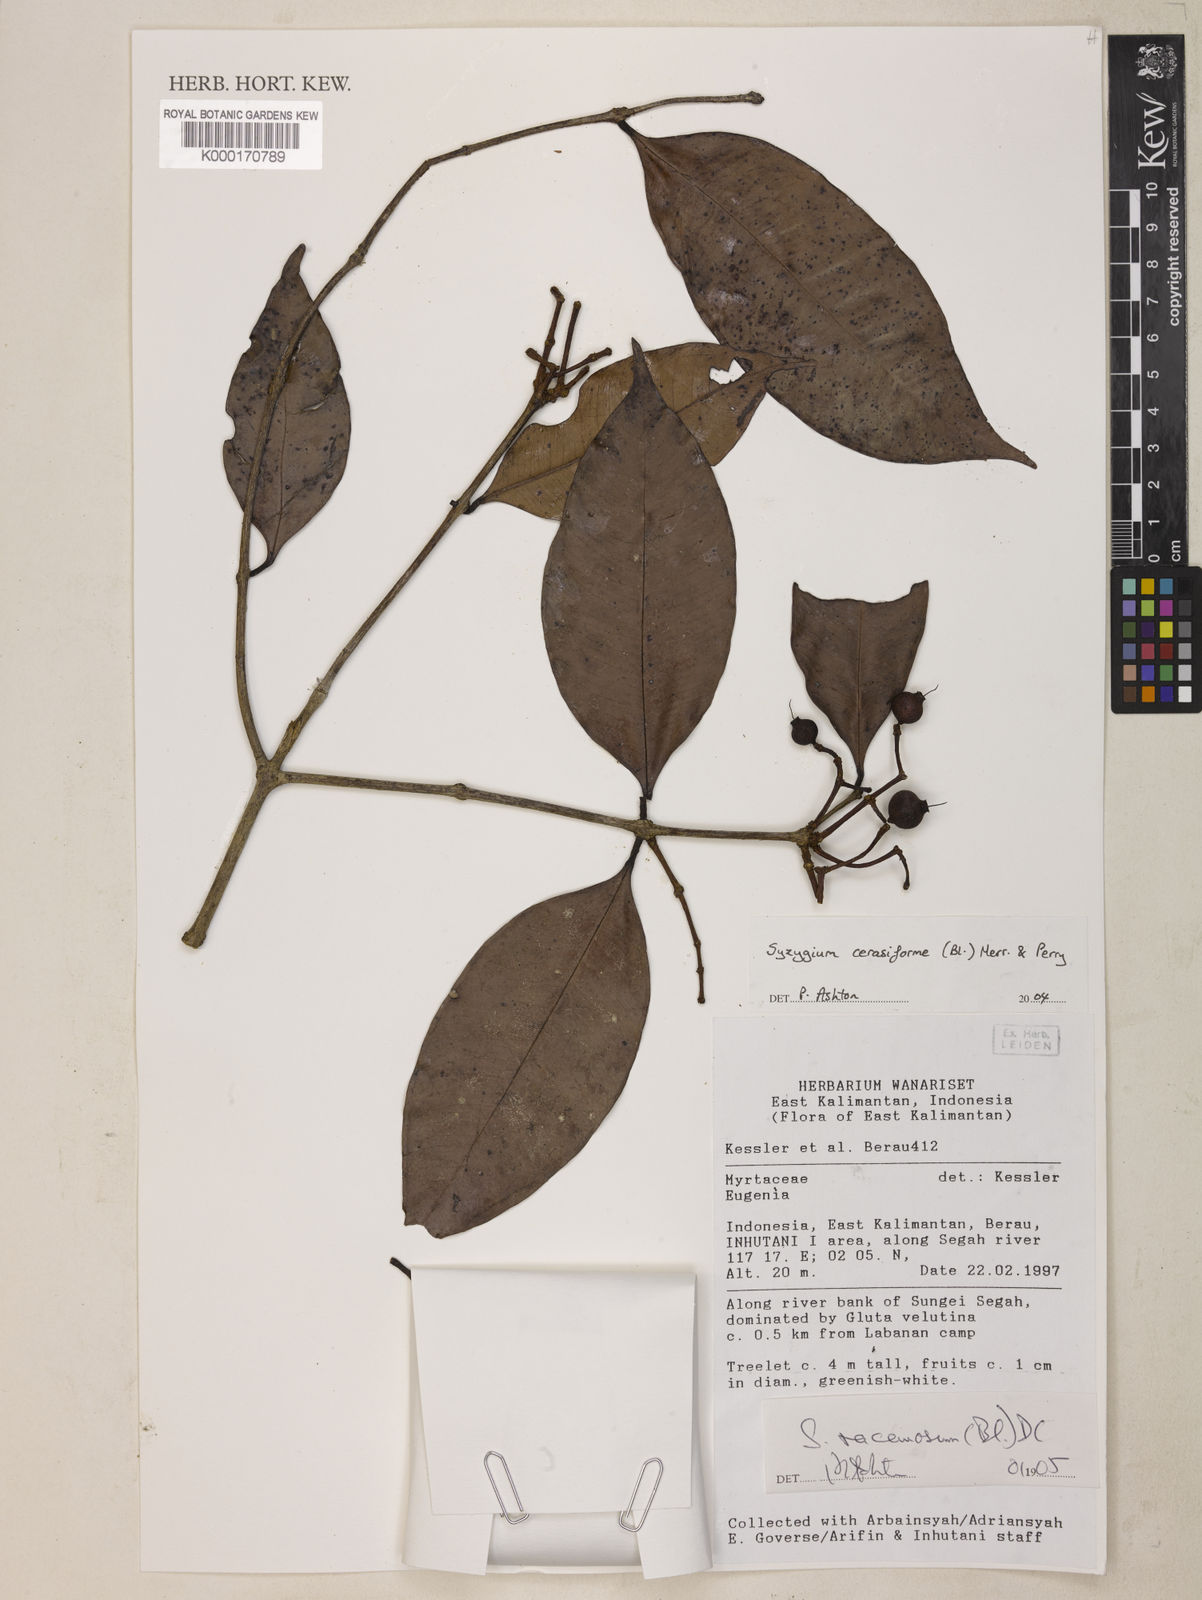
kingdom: Plantae
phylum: Tracheophyta
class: Magnoliopsida
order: Myrtales
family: Myrtaceae
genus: Syzygium
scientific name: Syzygium racemosum
